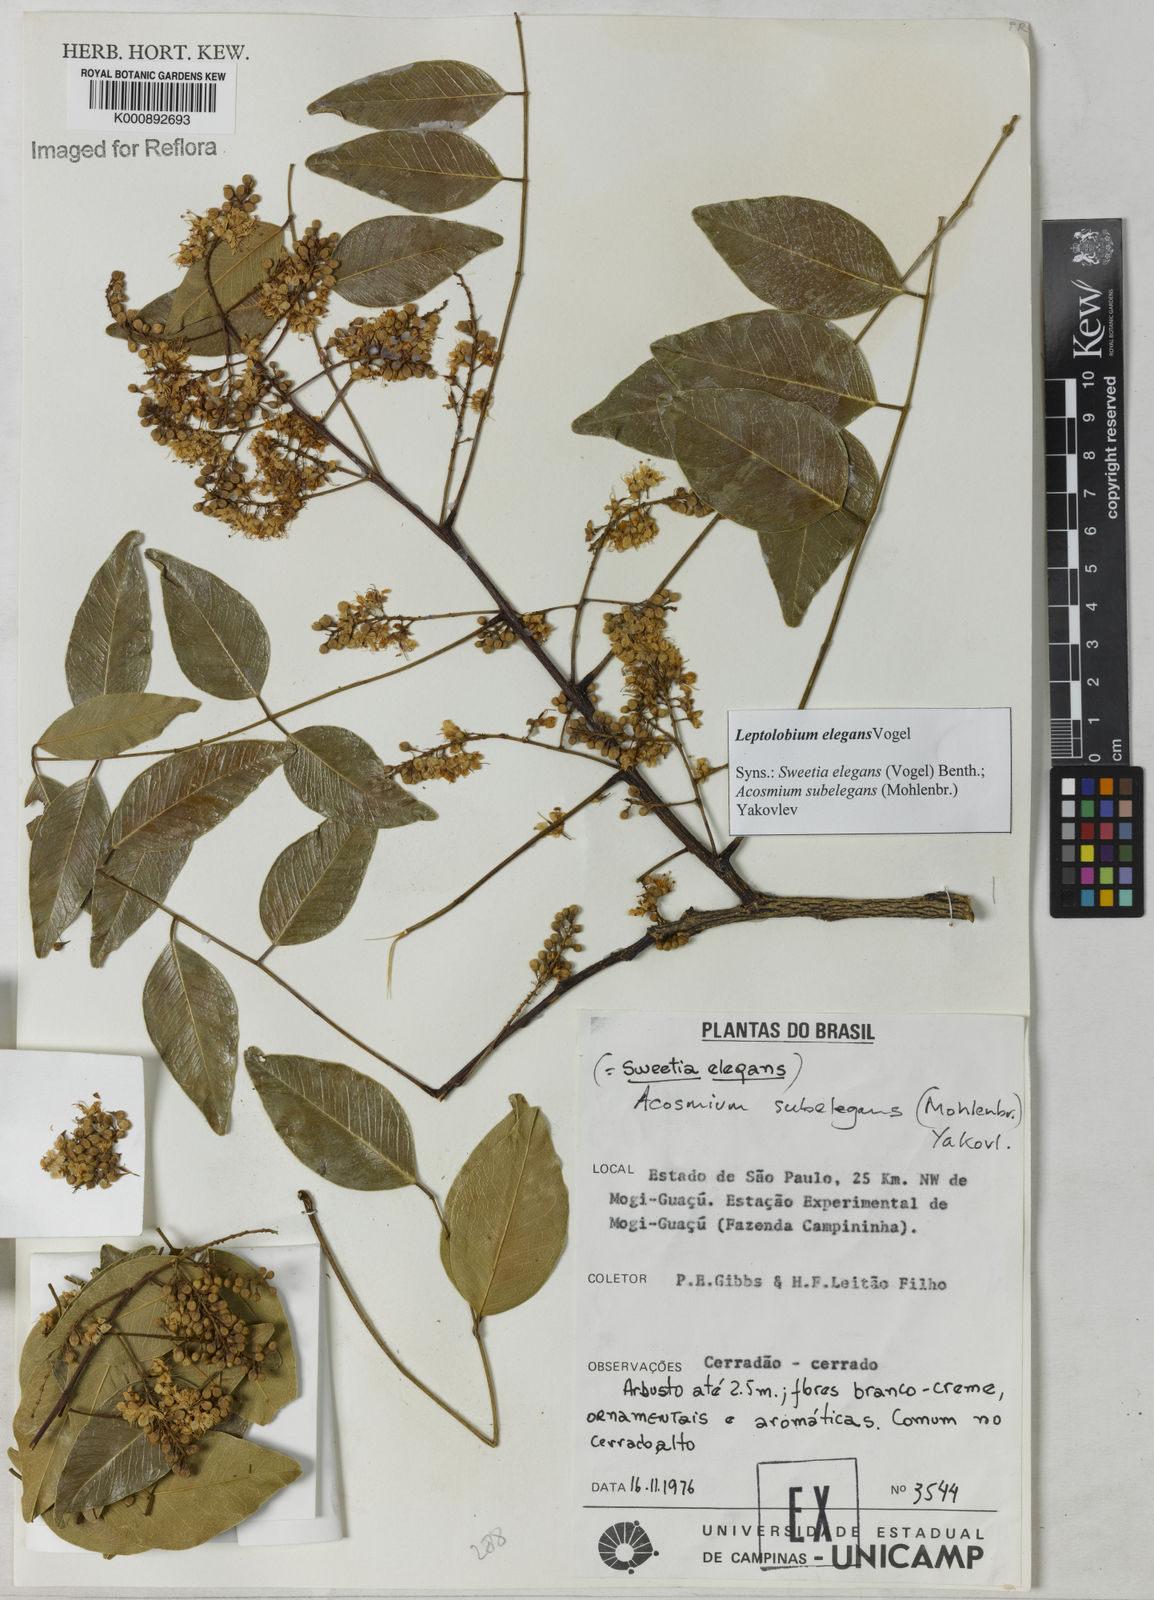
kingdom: Plantae
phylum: Tracheophyta
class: Magnoliopsida
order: Fabales
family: Fabaceae
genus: Leptolobium
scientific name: Leptolobium elegans
